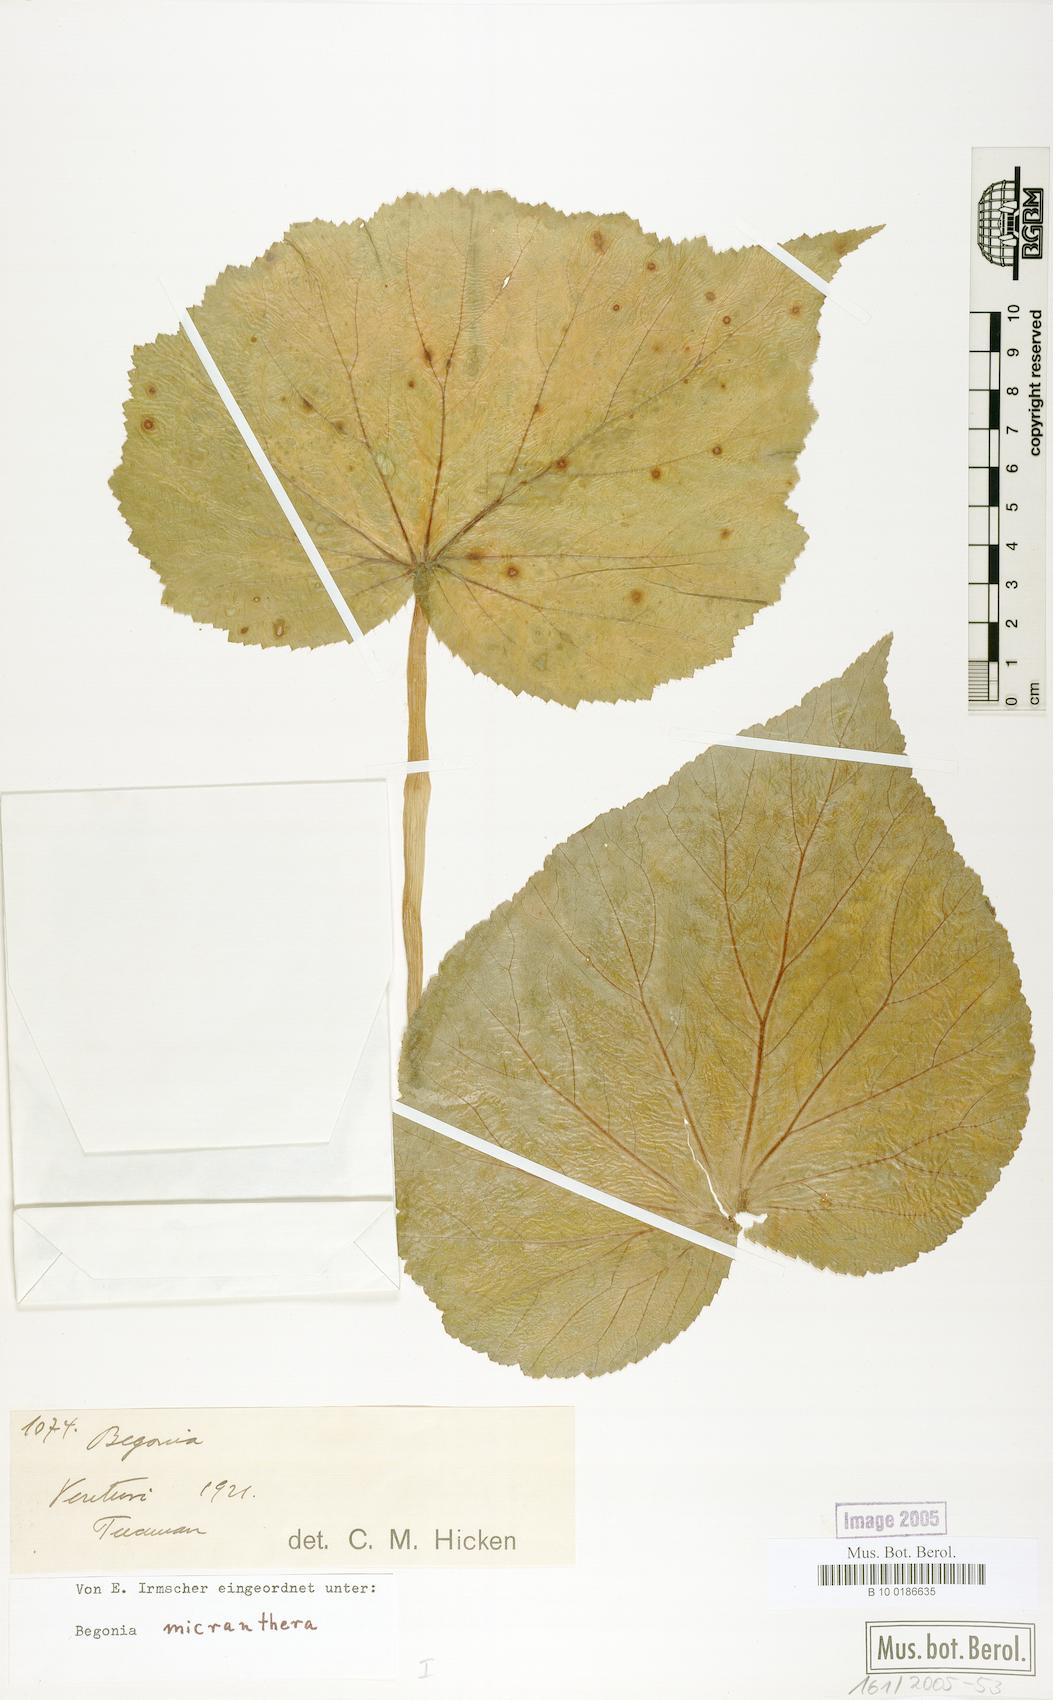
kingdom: Plantae
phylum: Tracheophyta
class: Magnoliopsida
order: Cucurbitales
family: Begoniaceae
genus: Begonia
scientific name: Begonia micranthera
